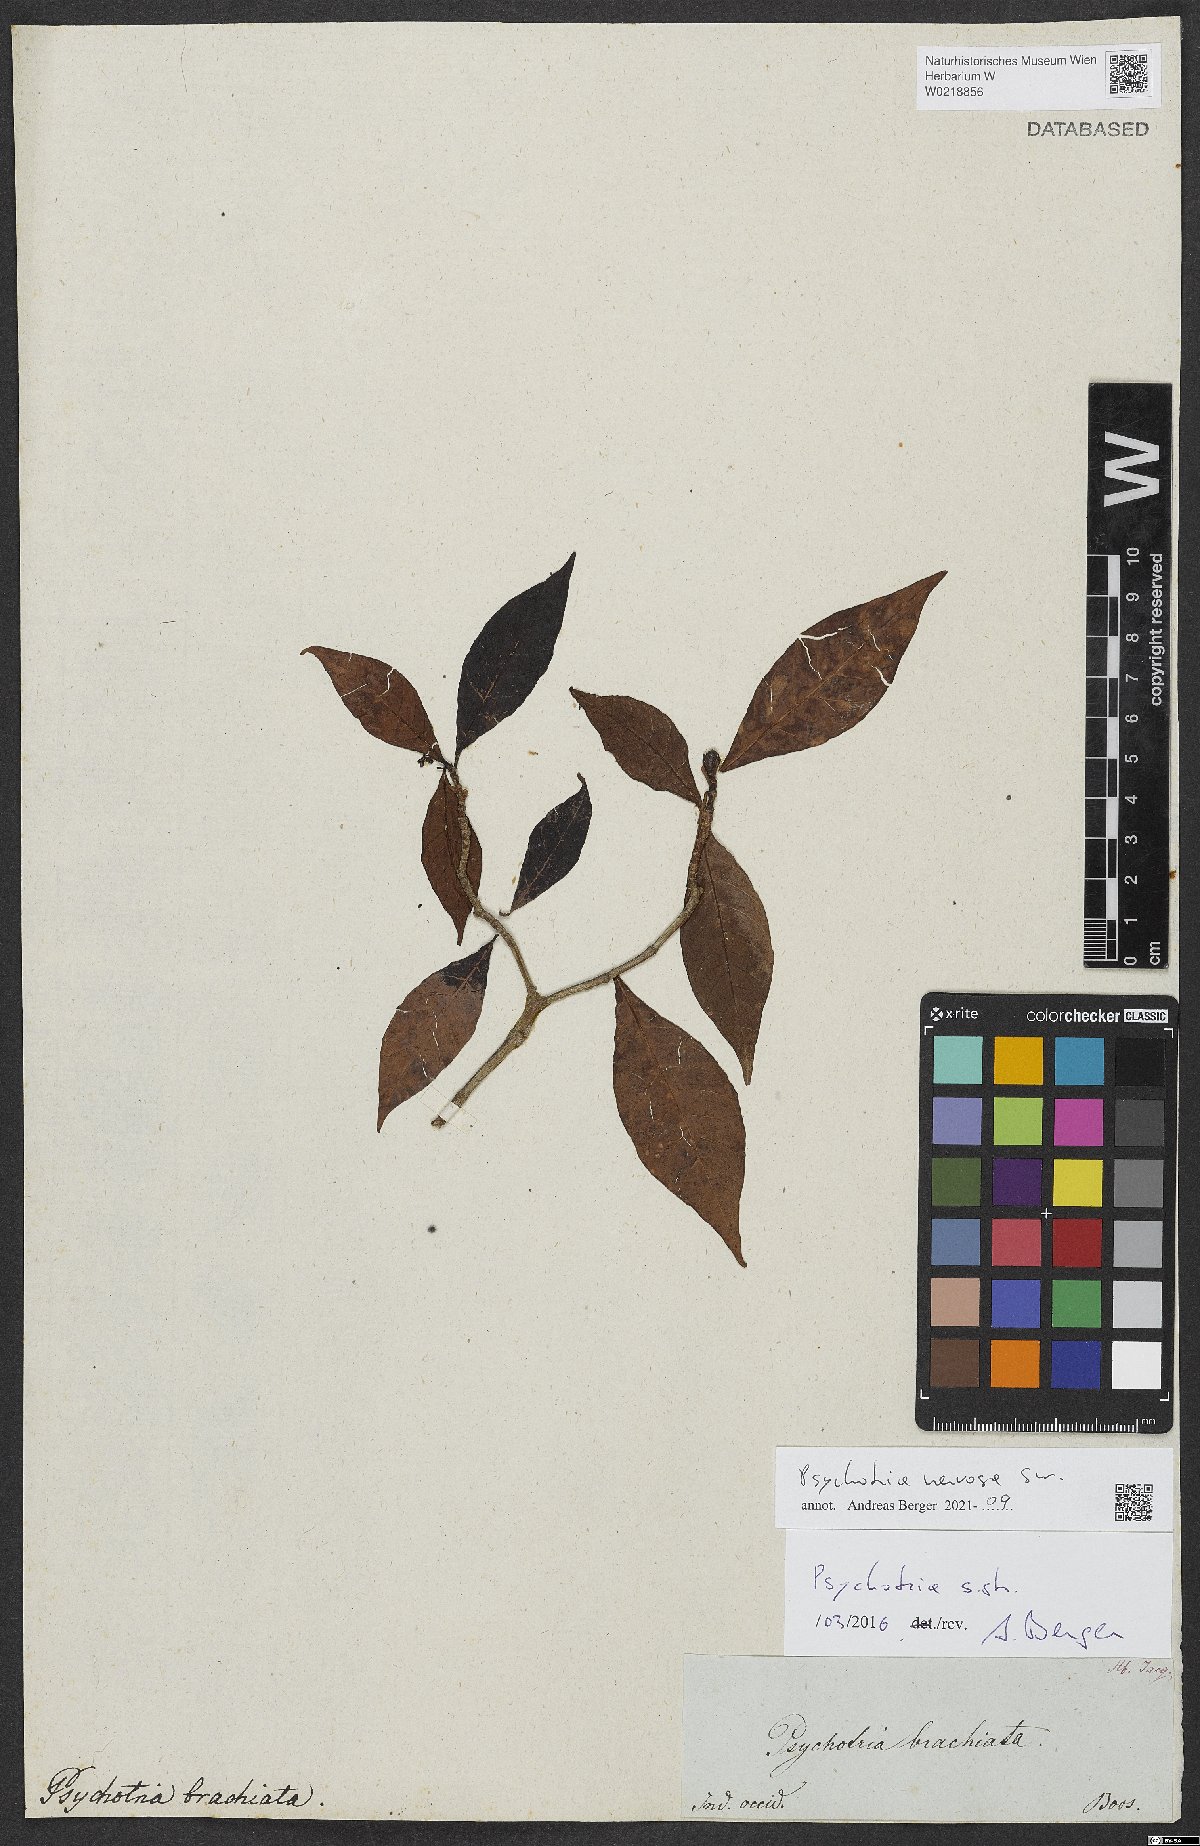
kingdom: Plantae
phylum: Tracheophyta
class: Magnoliopsida
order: Gentianales
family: Rubiaceae
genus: Psychotria
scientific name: Psychotria nervosa
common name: Bastard cankerberry
